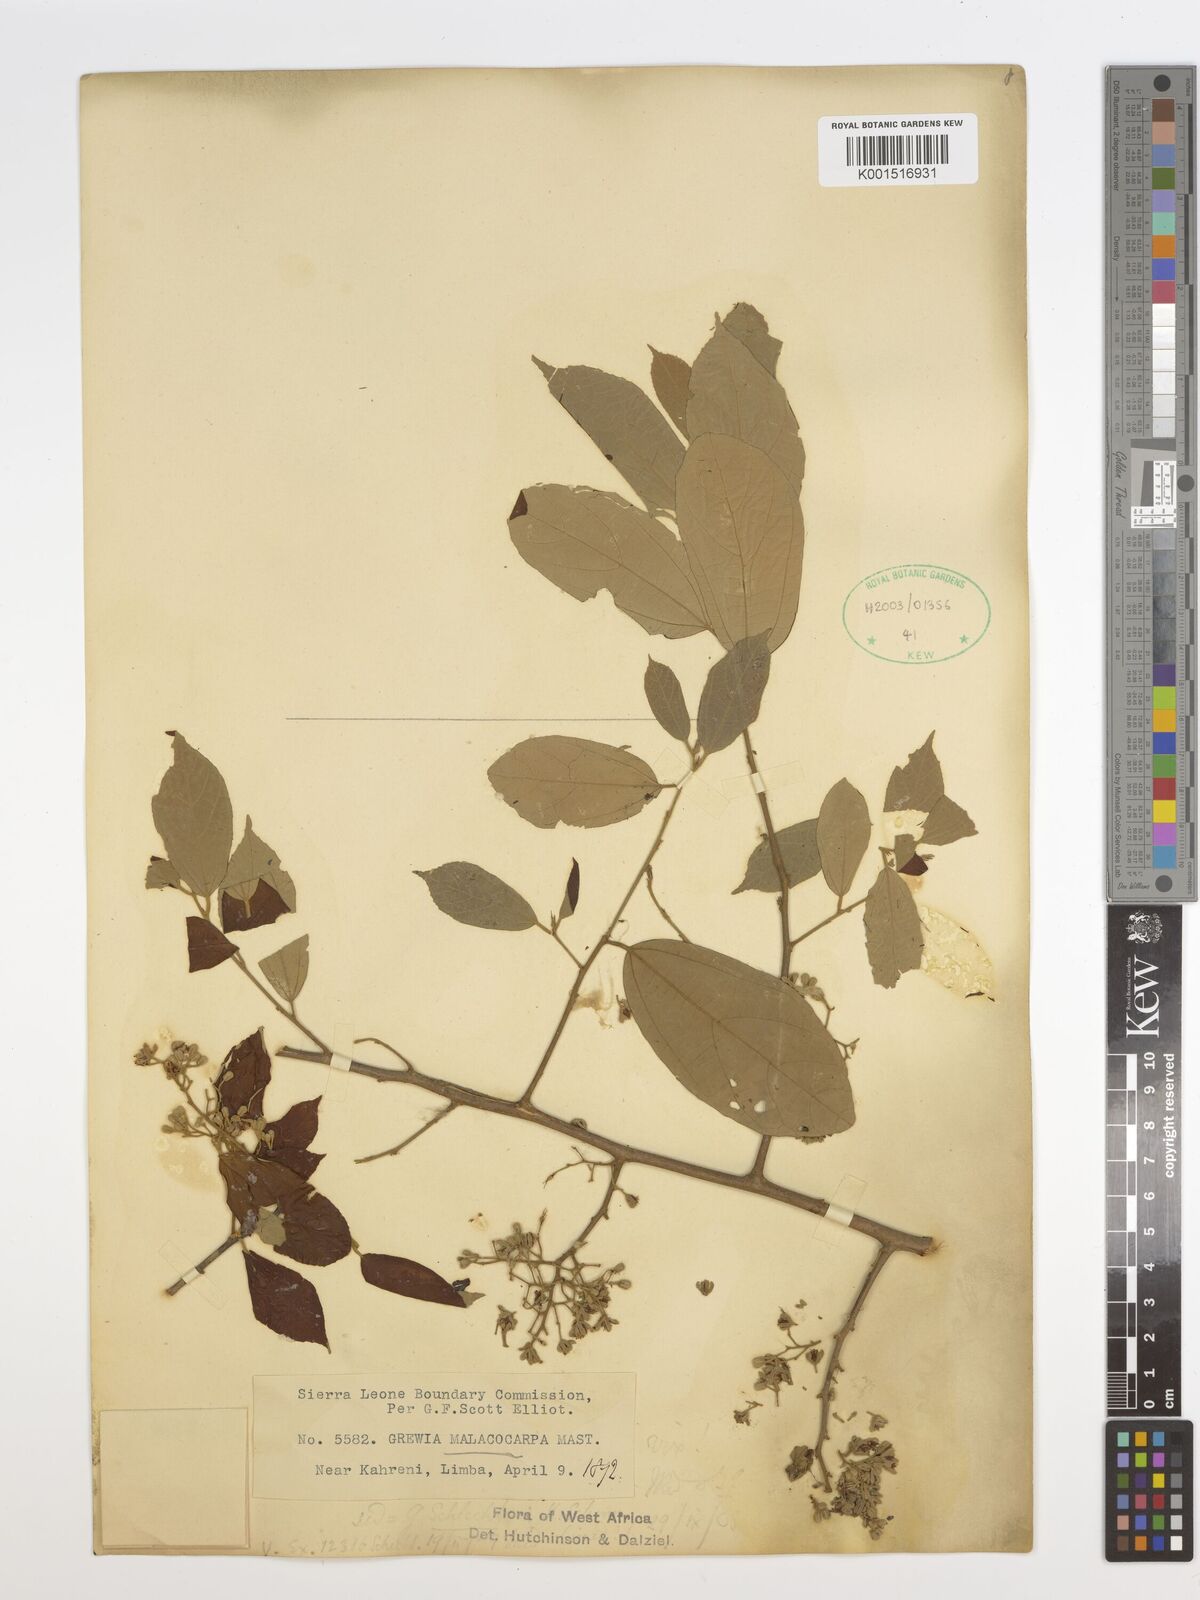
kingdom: Plantae
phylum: Tracheophyta
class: Magnoliopsida
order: Malvales
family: Malvaceae
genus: Microcos
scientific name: Microcos malacocarpa
